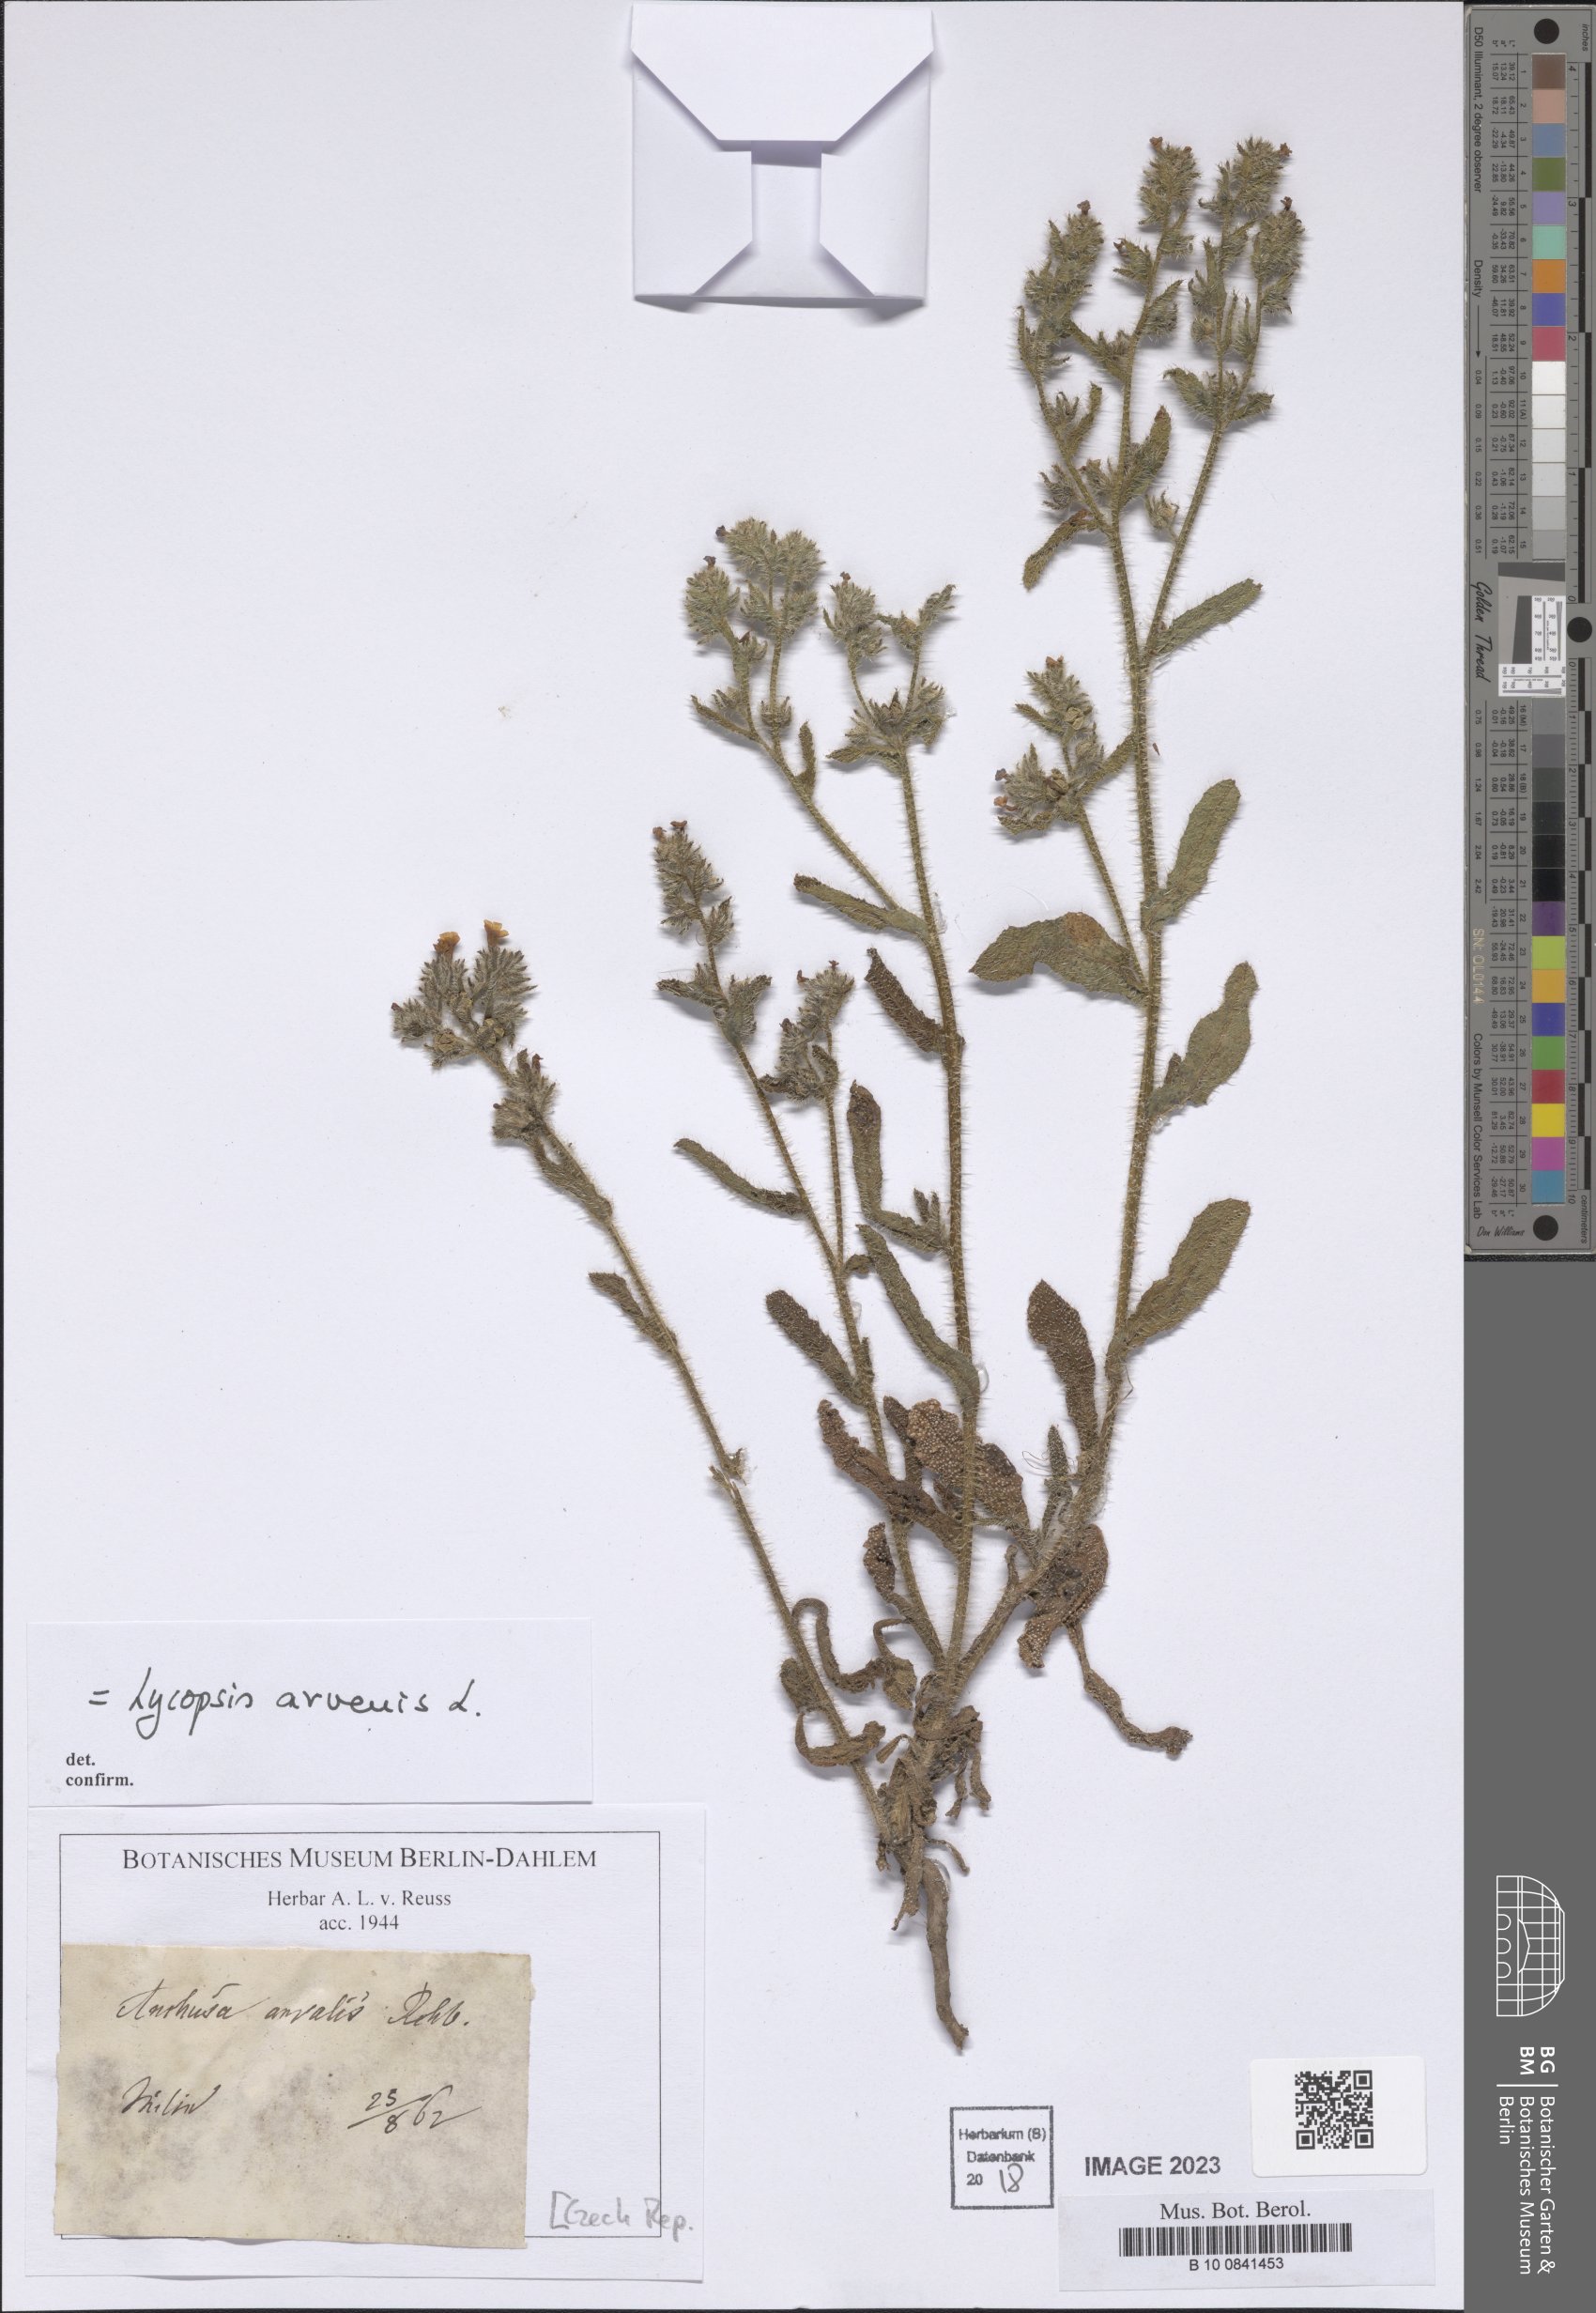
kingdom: Plantae
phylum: Tracheophyta
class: Magnoliopsida
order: Boraginales
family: Boraginaceae
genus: Lycopsis
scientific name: Lycopsis arvensis
